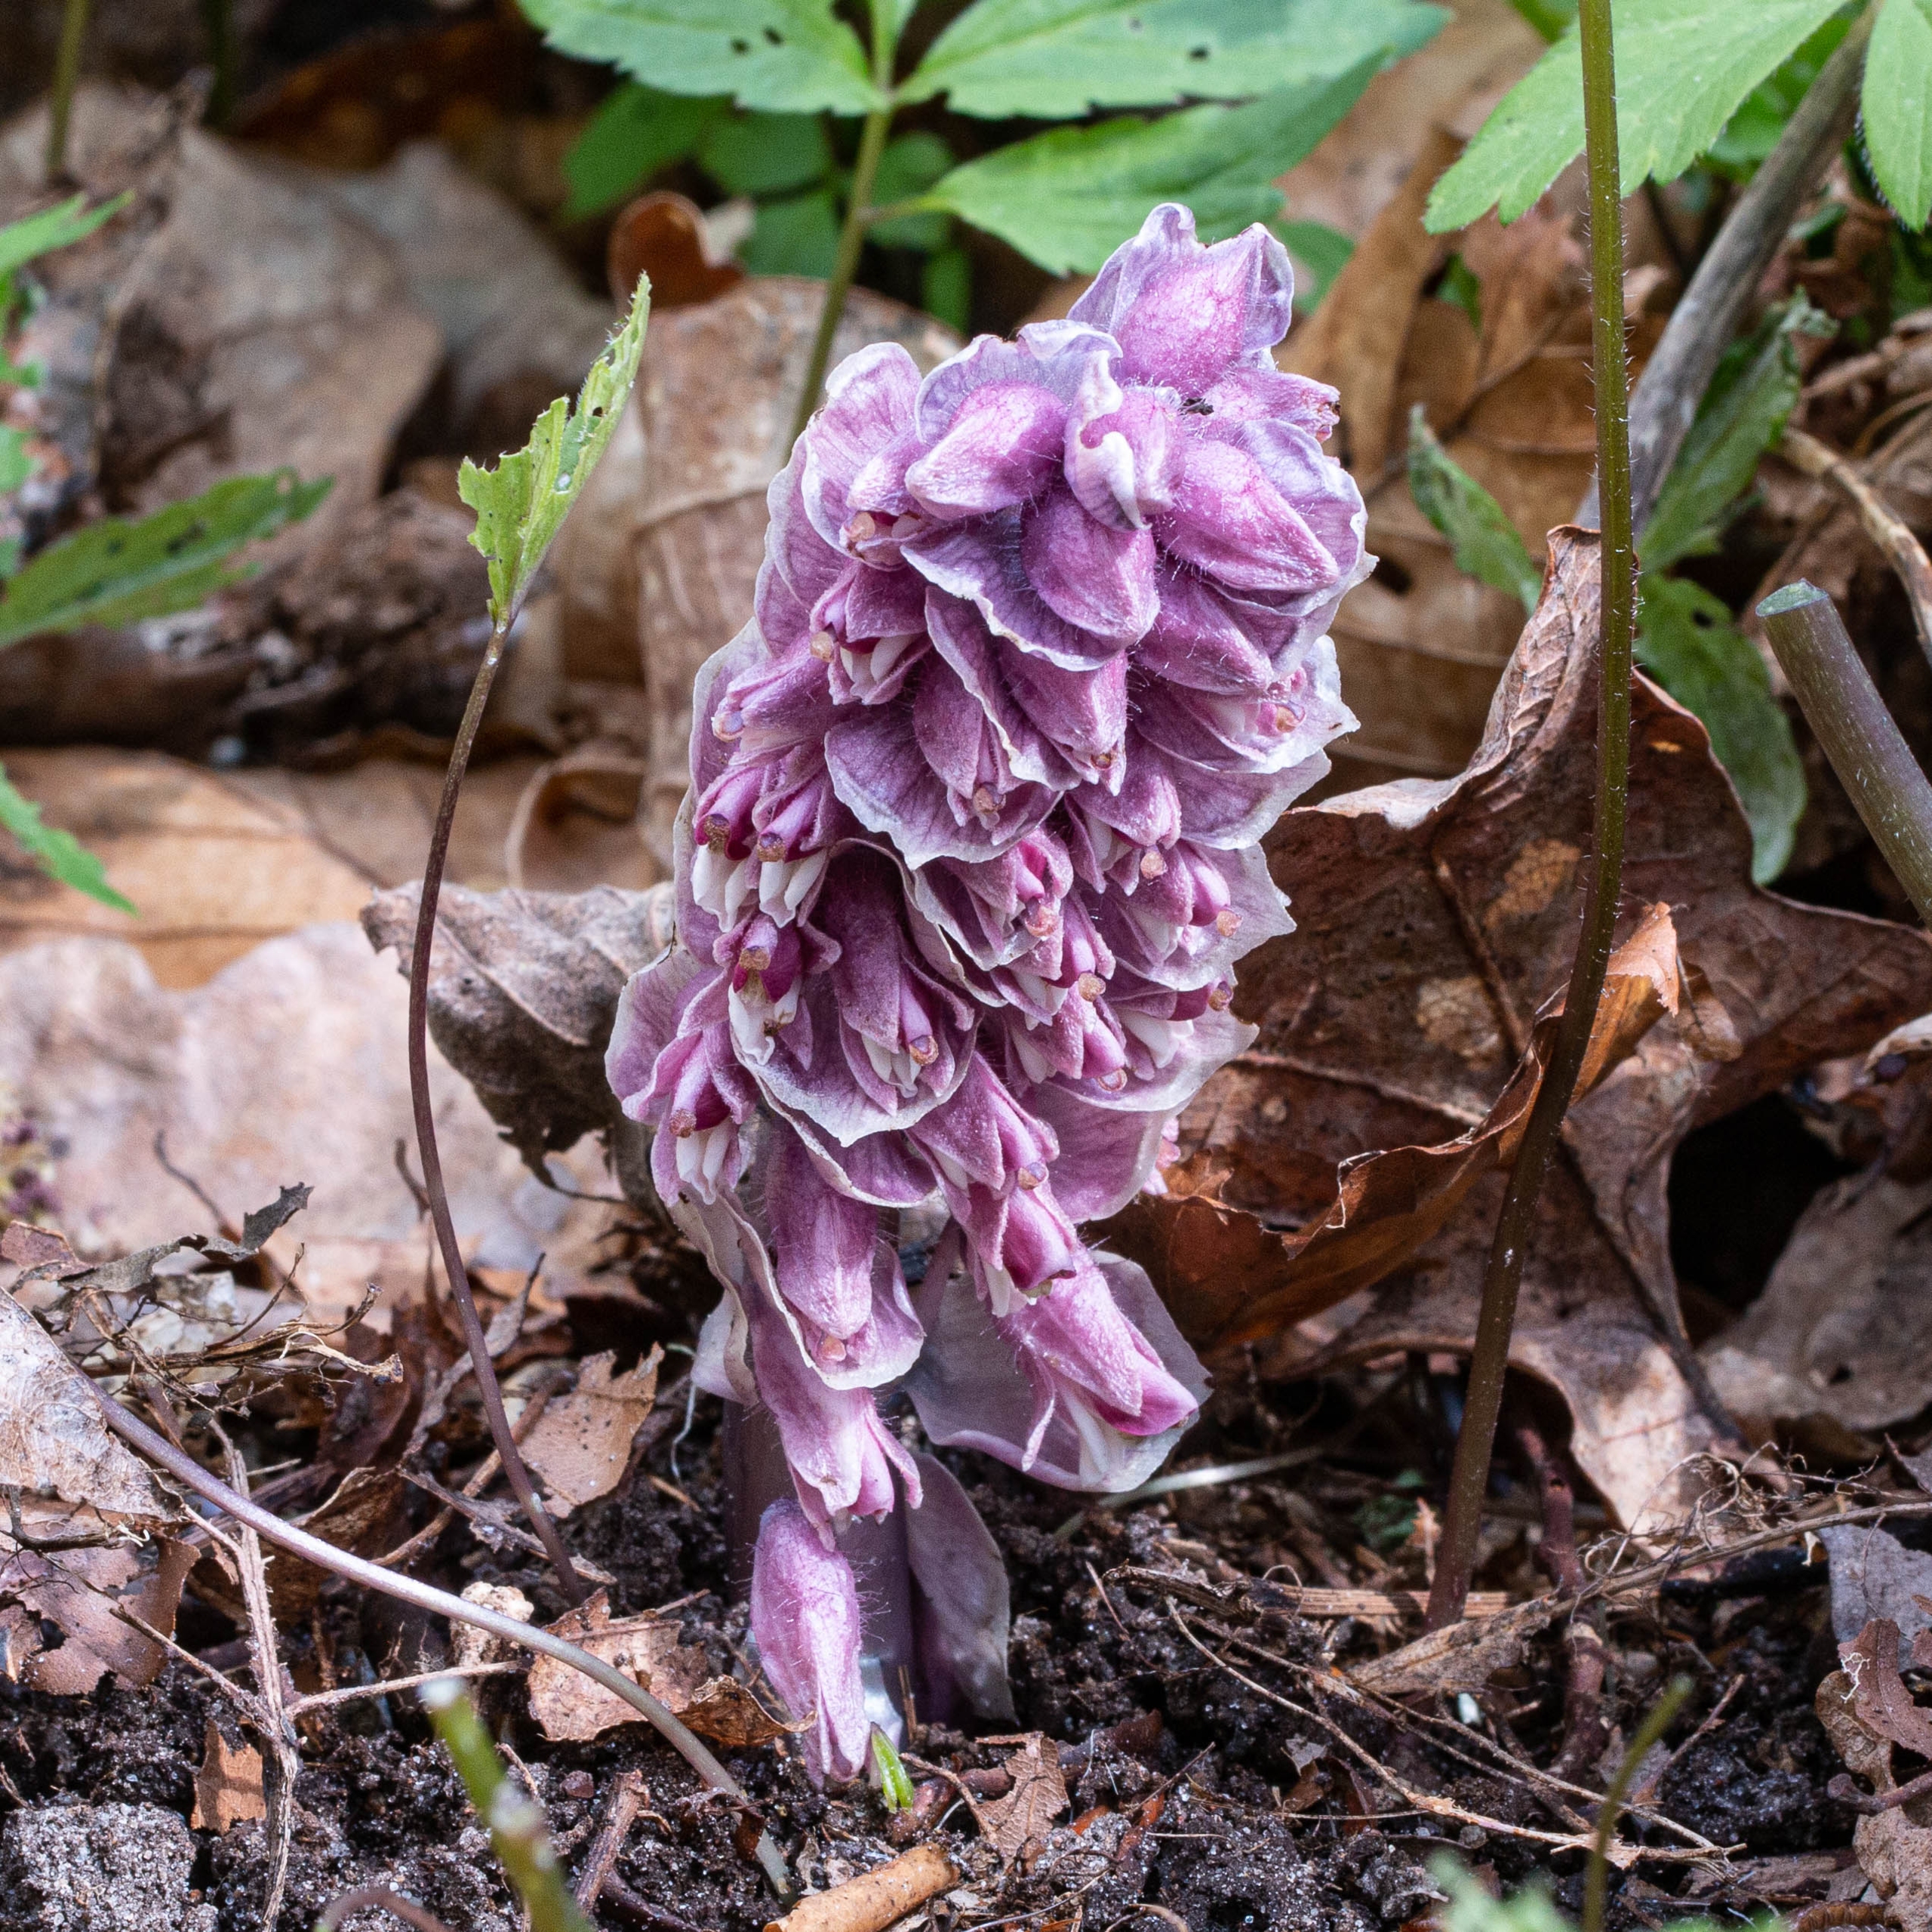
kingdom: Plantae
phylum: Tracheophyta
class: Magnoliopsida
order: Lamiales
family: Orobanchaceae
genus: Lathraea
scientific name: Lathraea squamaria
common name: Skælrod
